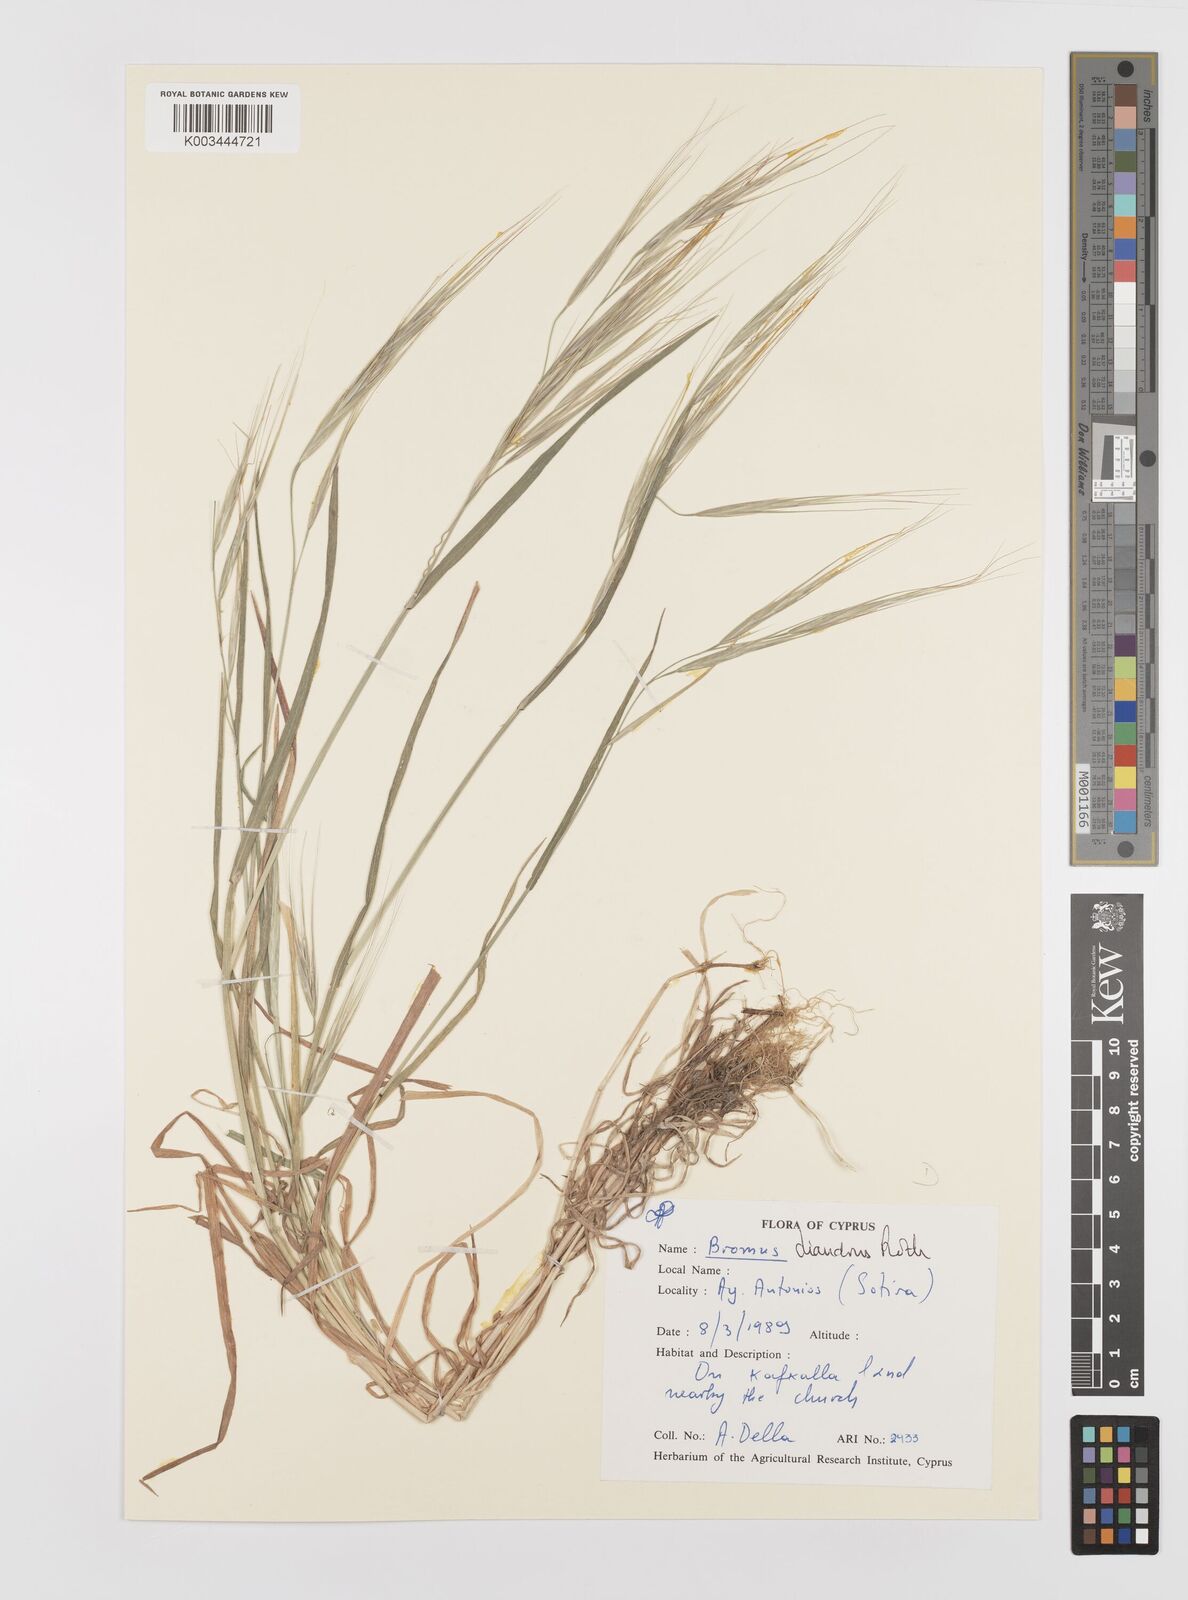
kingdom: Plantae
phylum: Tracheophyta
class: Liliopsida
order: Poales
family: Poaceae
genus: Bromus
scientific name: Bromus diandrus
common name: Ripgut brome
